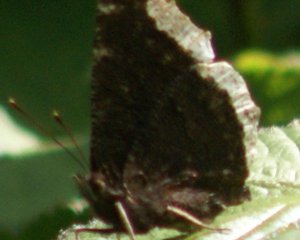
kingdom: Animalia
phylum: Arthropoda
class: Insecta
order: Lepidoptera
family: Nymphalidae
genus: Nymphalis
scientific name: Nymphalis antiopa
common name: Mourning Cloak
